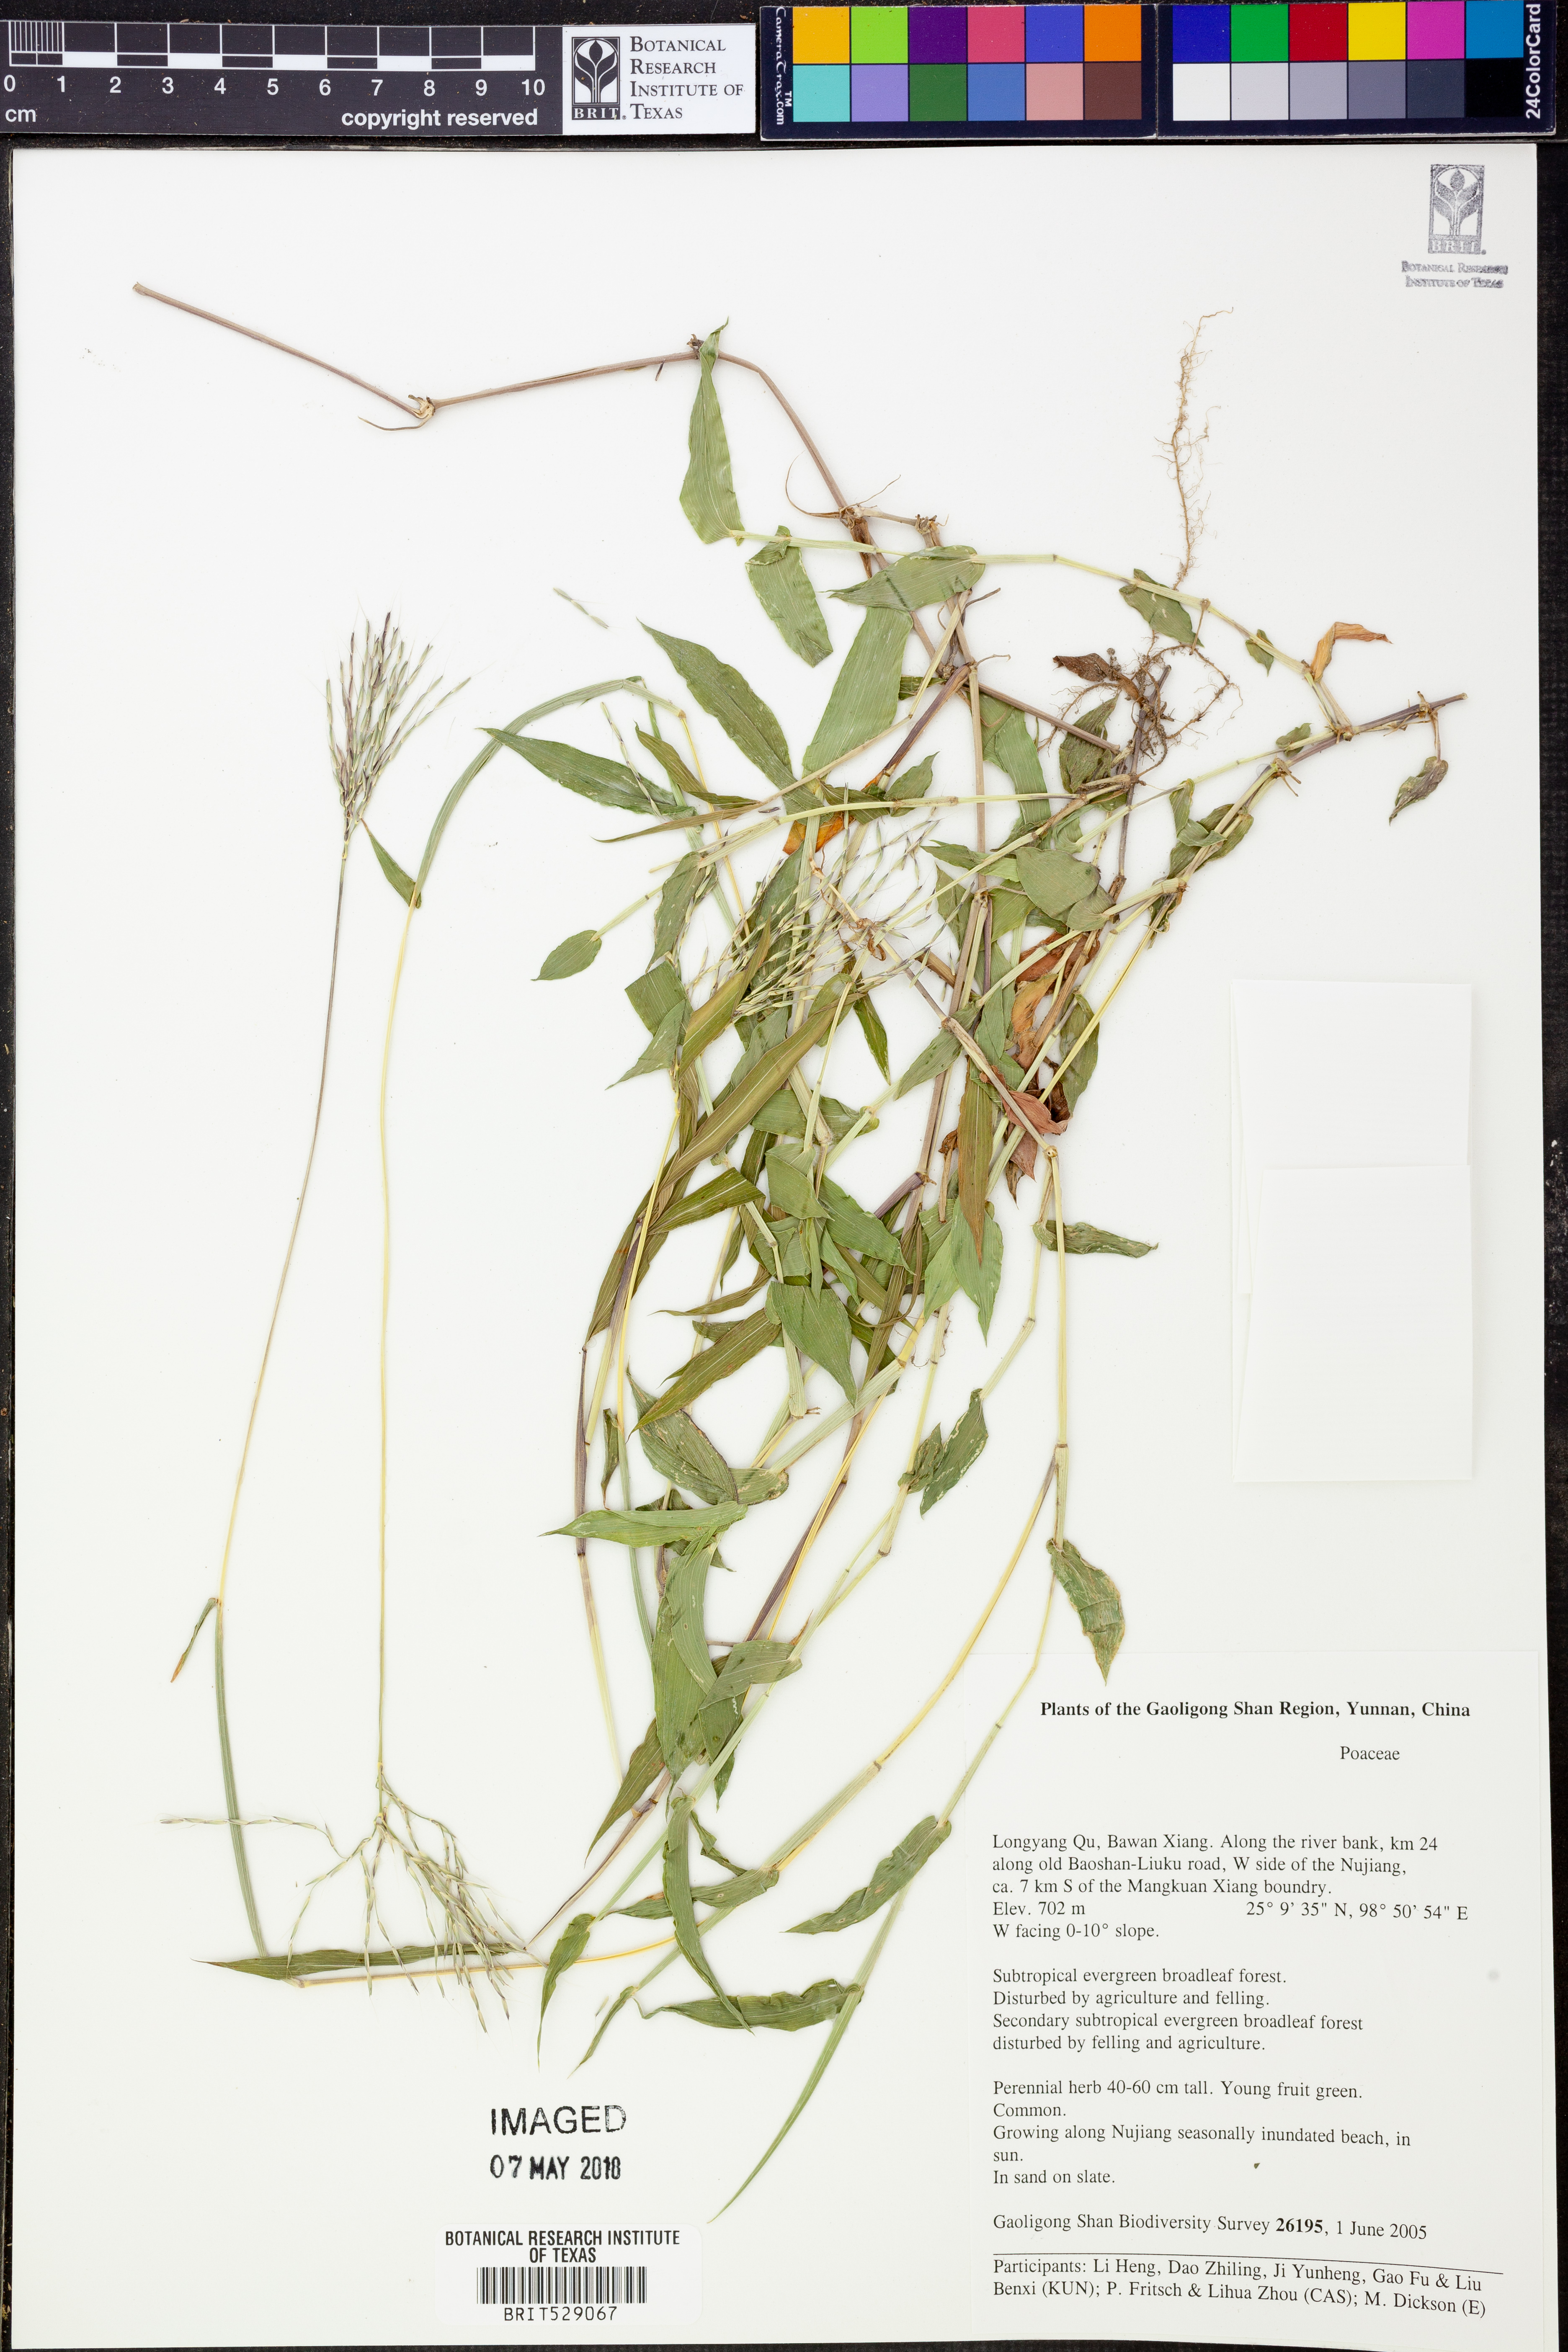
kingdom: Plantae
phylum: Tracheophyta
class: Liliopsida
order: Poales
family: Poaceae
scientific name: Poaceae
